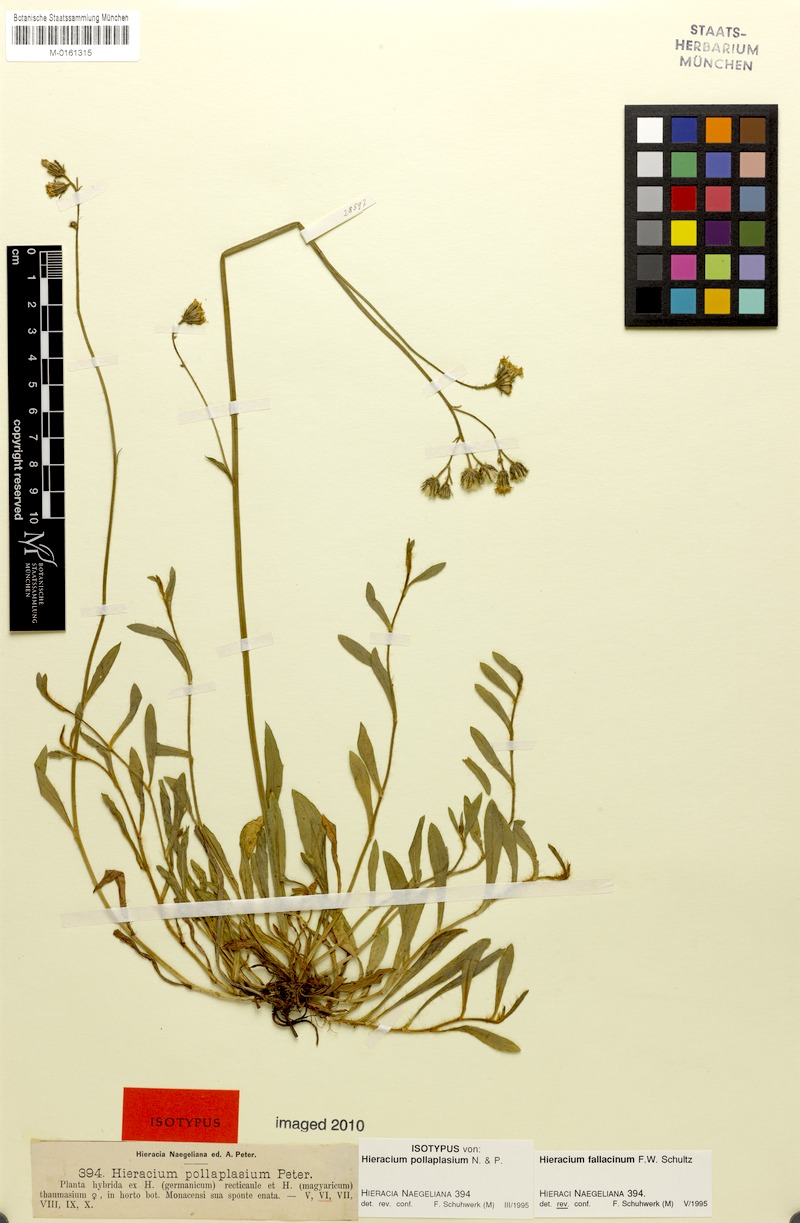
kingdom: Plantae
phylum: Tracheophyta
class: Magnoliopsida
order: Asterales
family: Asteraceae
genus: Pilosella
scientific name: Pilosella fallacina
